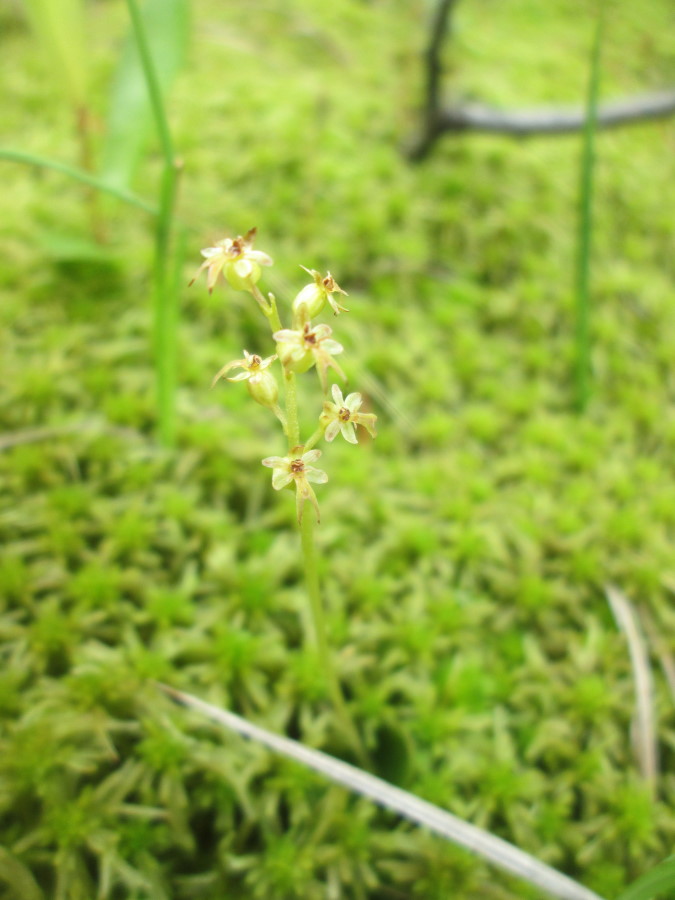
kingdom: Plantae
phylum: Tracheophyta
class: Liliopsida
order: Asparagales
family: Orchidaceae
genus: Neottia
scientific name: Neottia cordata
